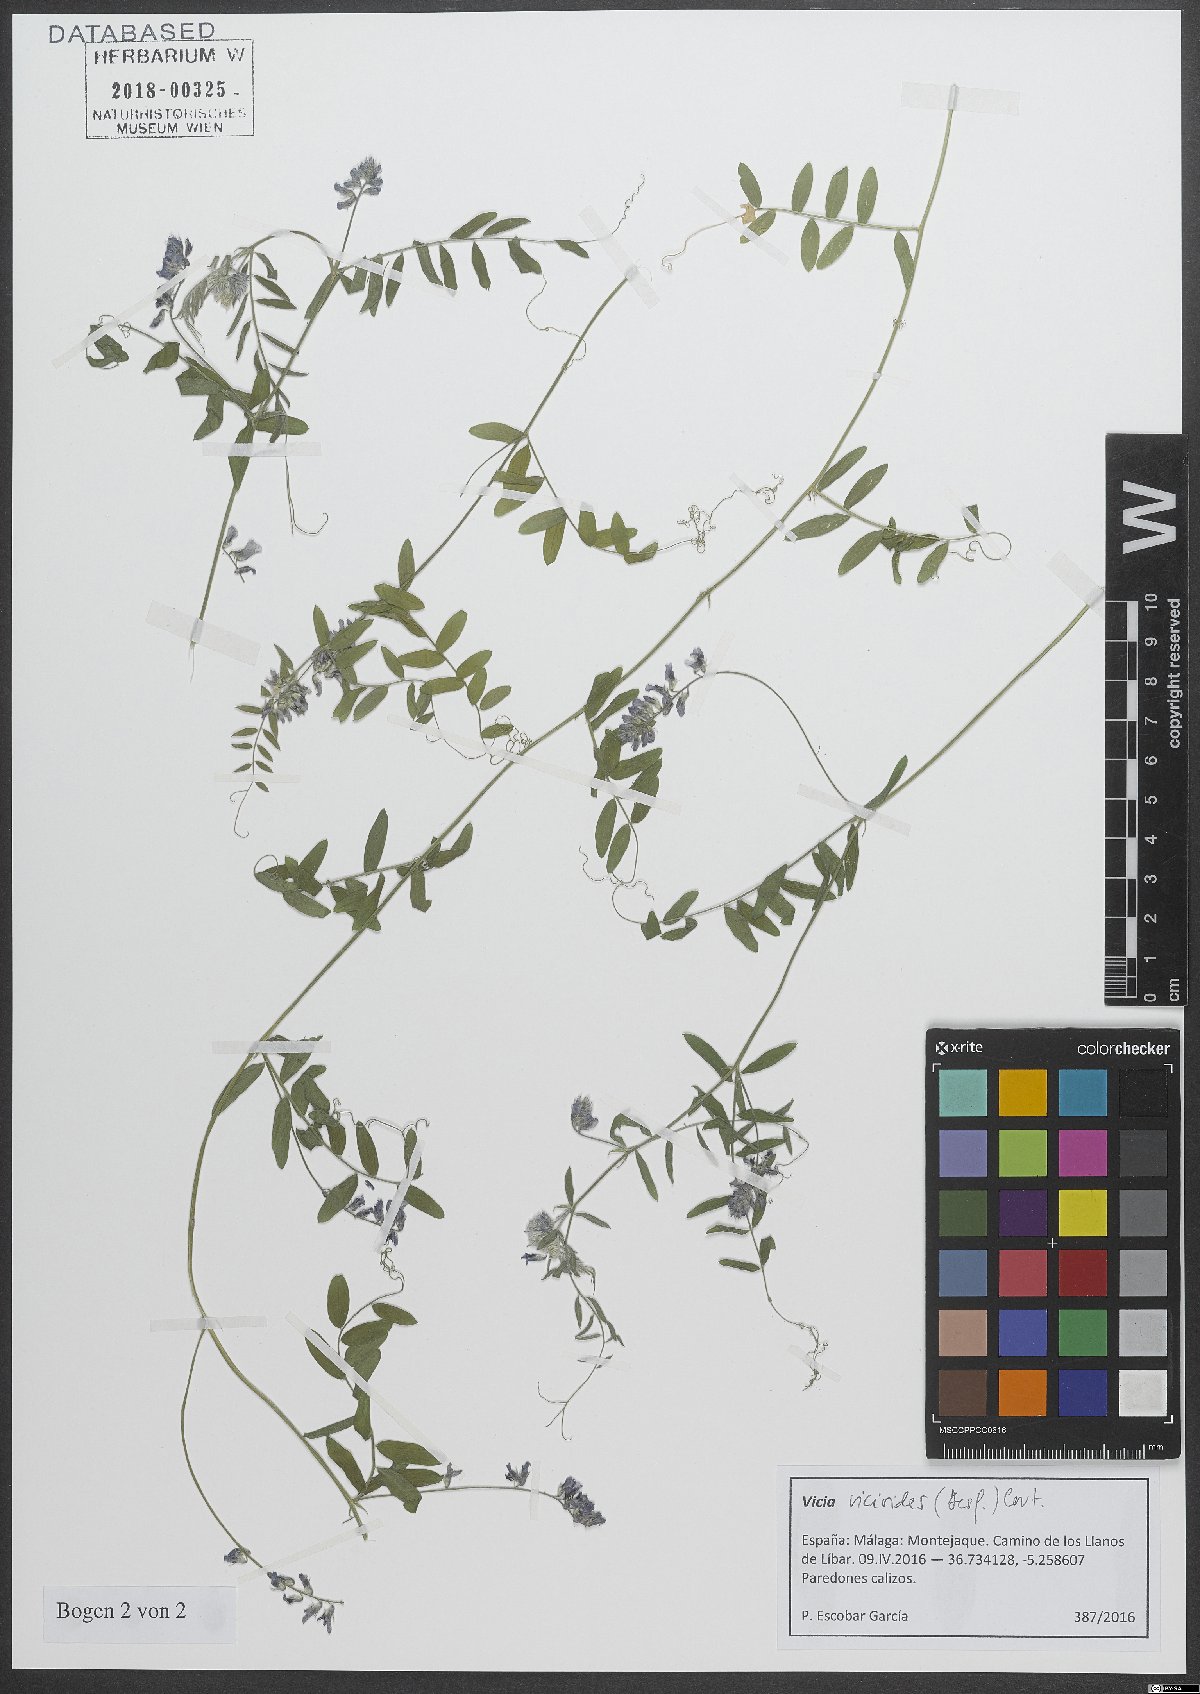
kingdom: Plantae
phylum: Tracheophyta
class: Magnoliopsida
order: Fabales
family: Fabaceae
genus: Vicia
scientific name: Vicia vicioides
